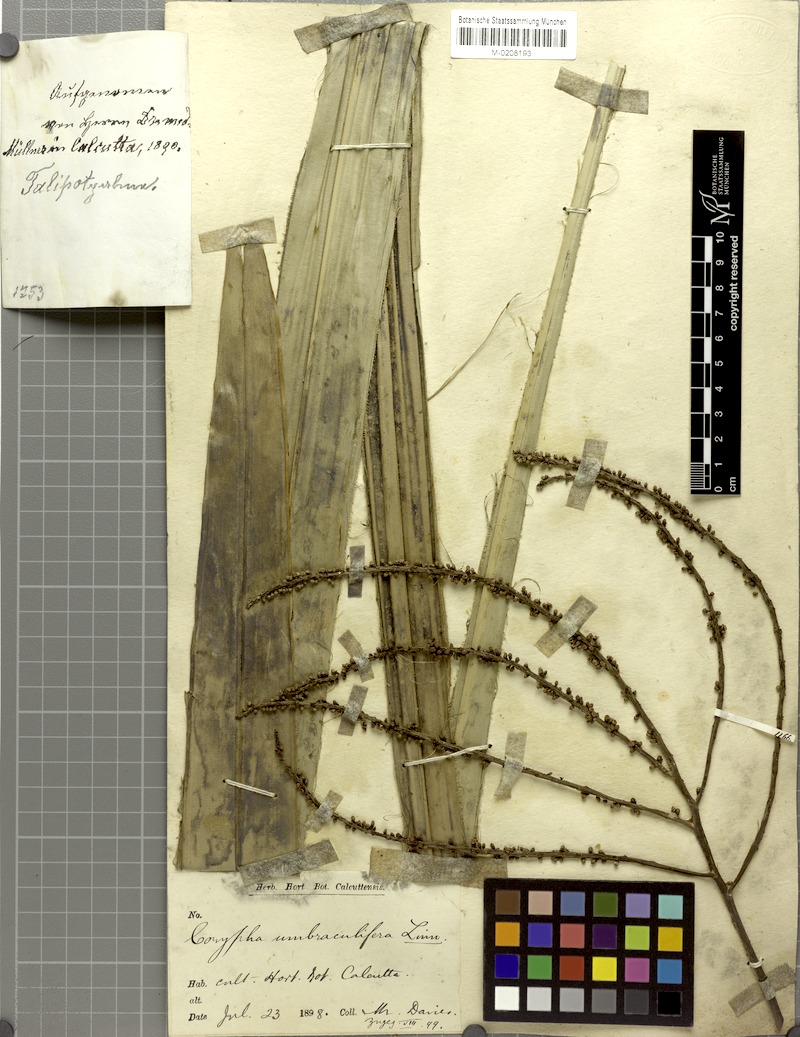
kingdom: Plantae
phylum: Tracheophyta
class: Liliopsida
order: Arecales
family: Arecaceae
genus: Corypha
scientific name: Corypha umbraculifera
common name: Talipot palm
